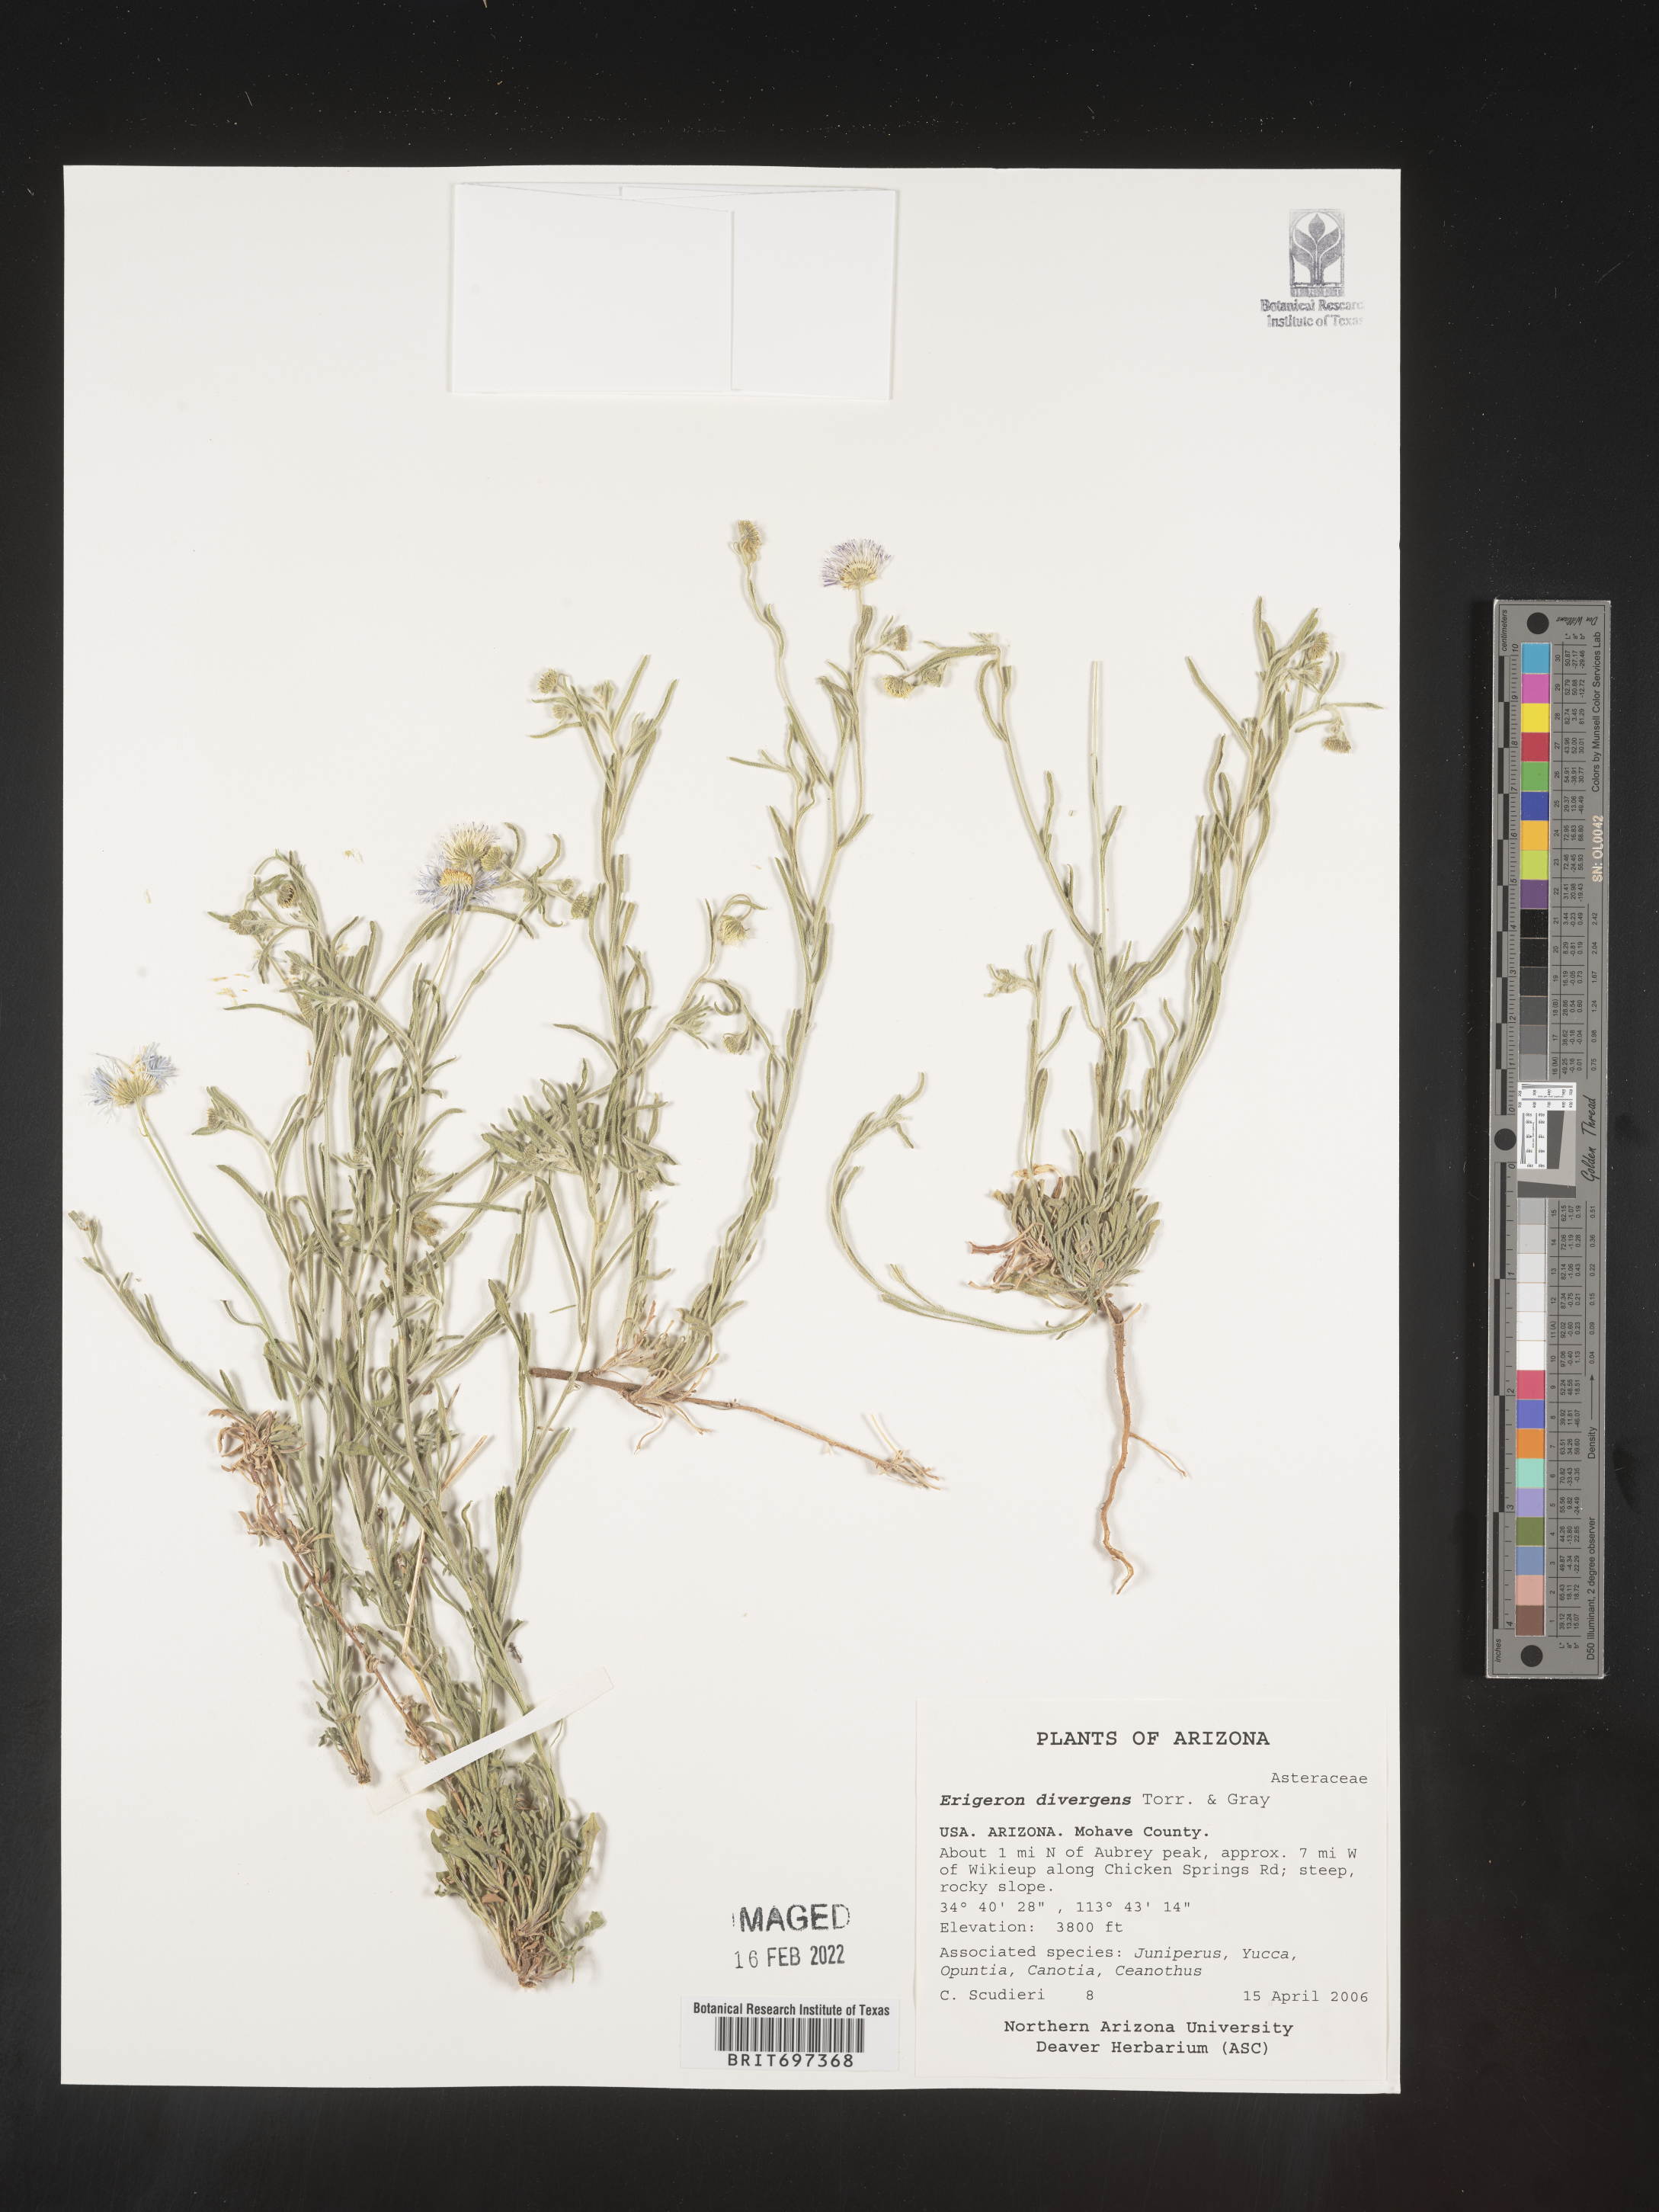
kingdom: Plantae
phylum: Tracheophyta
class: Magnoliopsida
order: Asterales
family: Asteraceae
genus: Erigeron
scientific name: Erigeron divergens
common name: Diffuse fleabane
